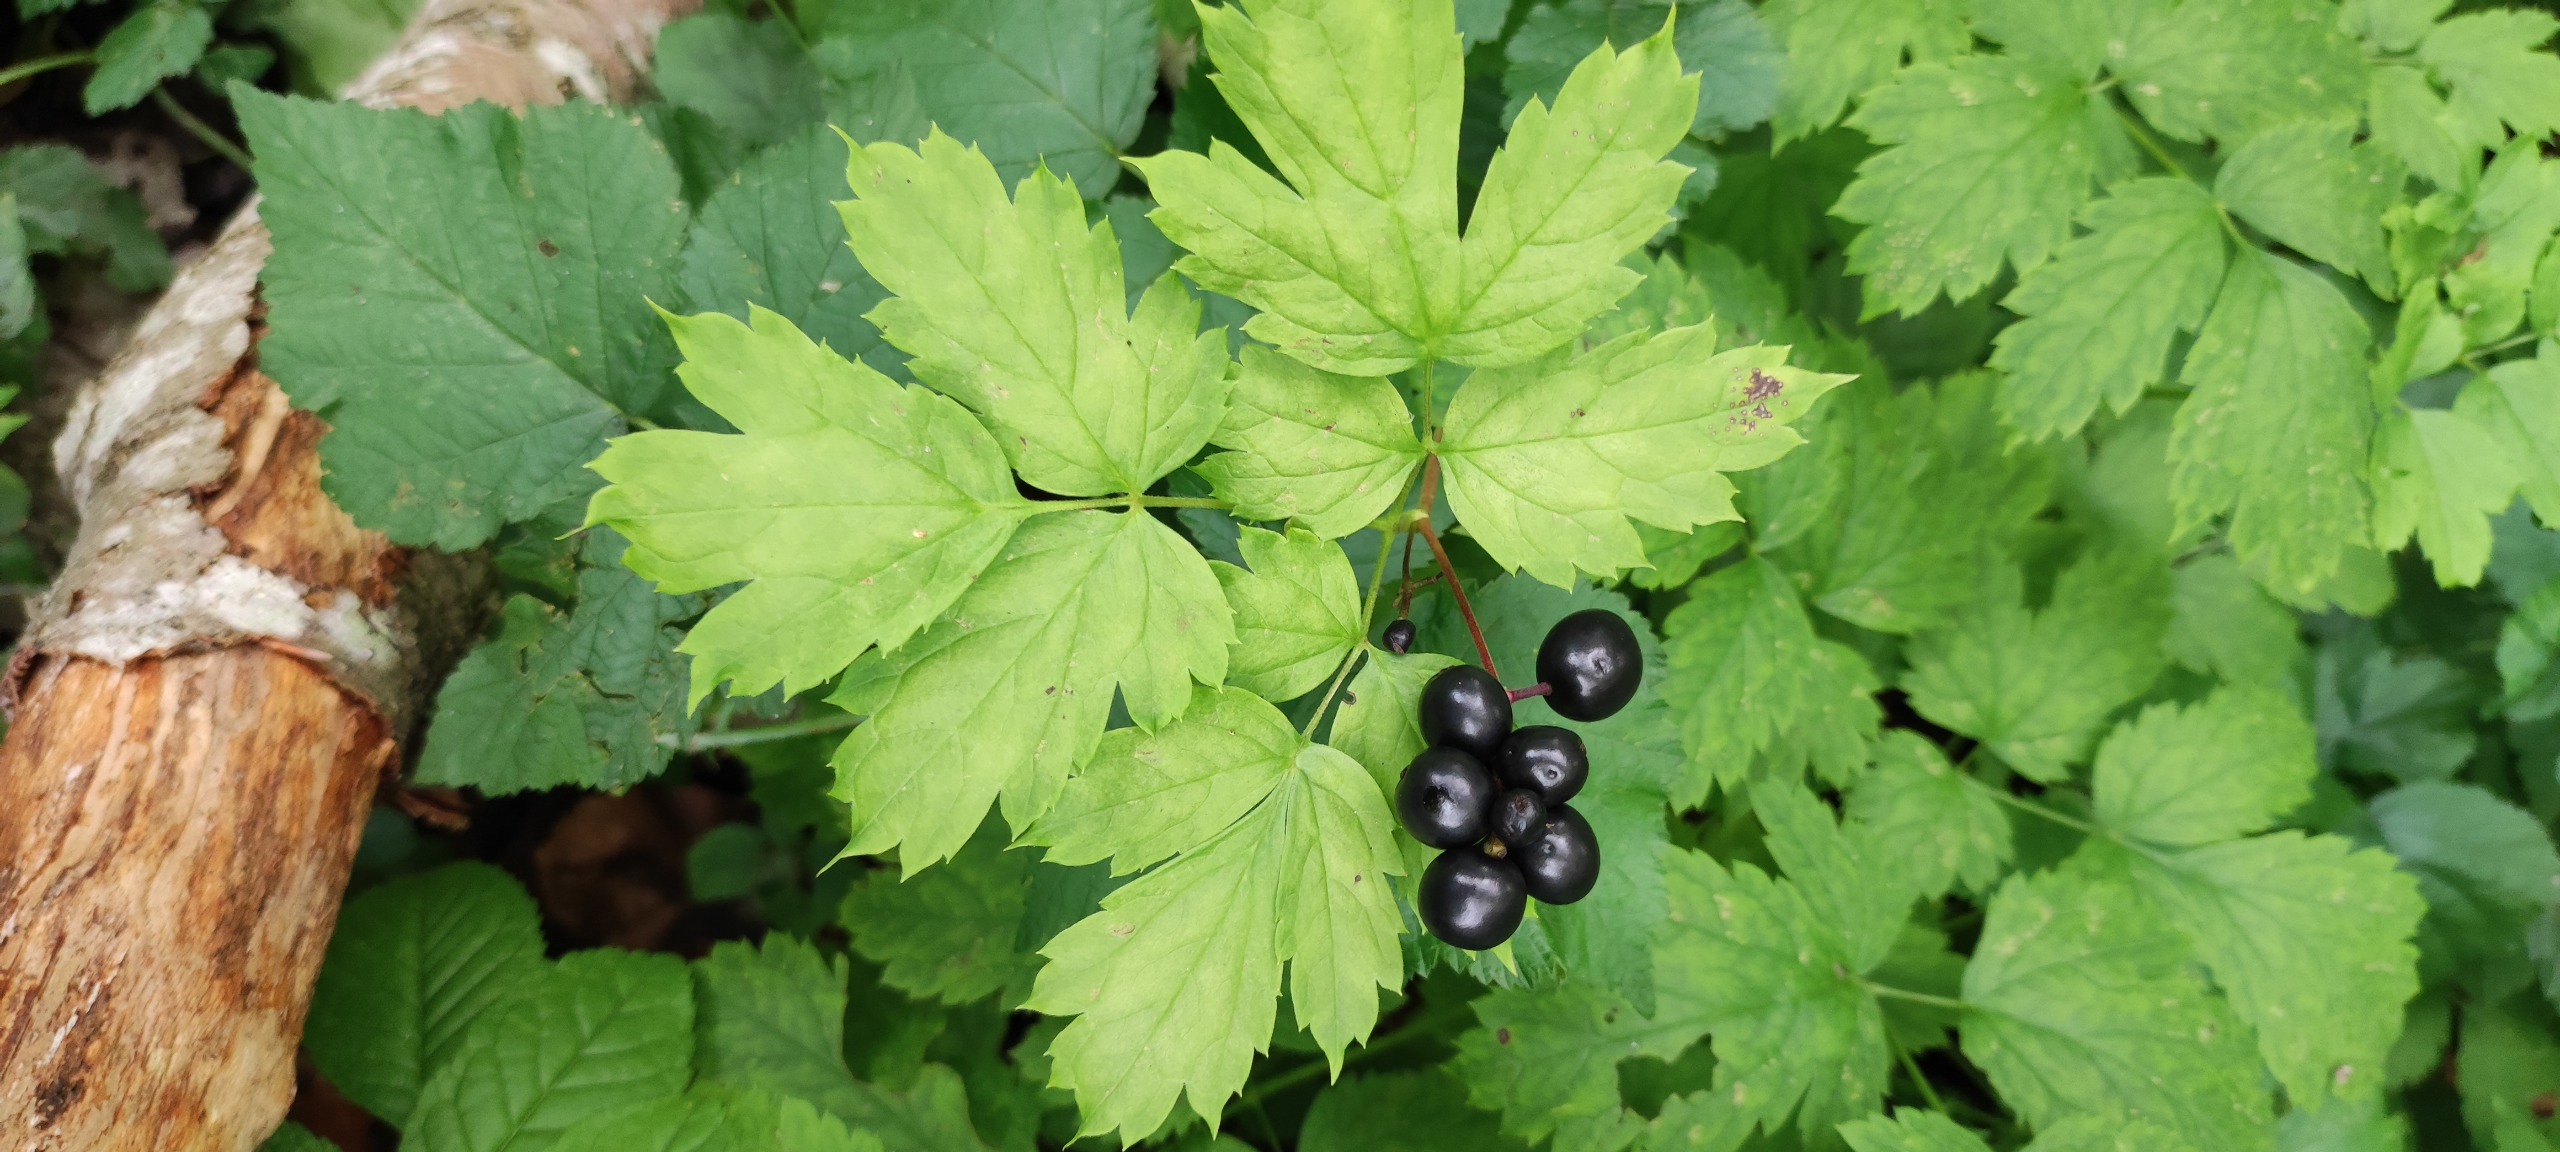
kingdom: Plantae
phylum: Tracheophyta
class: Magnoliopsida
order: Ranunculales
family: Ranunculaceae
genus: Actaea
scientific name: Actaea spicata
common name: Druemunke
